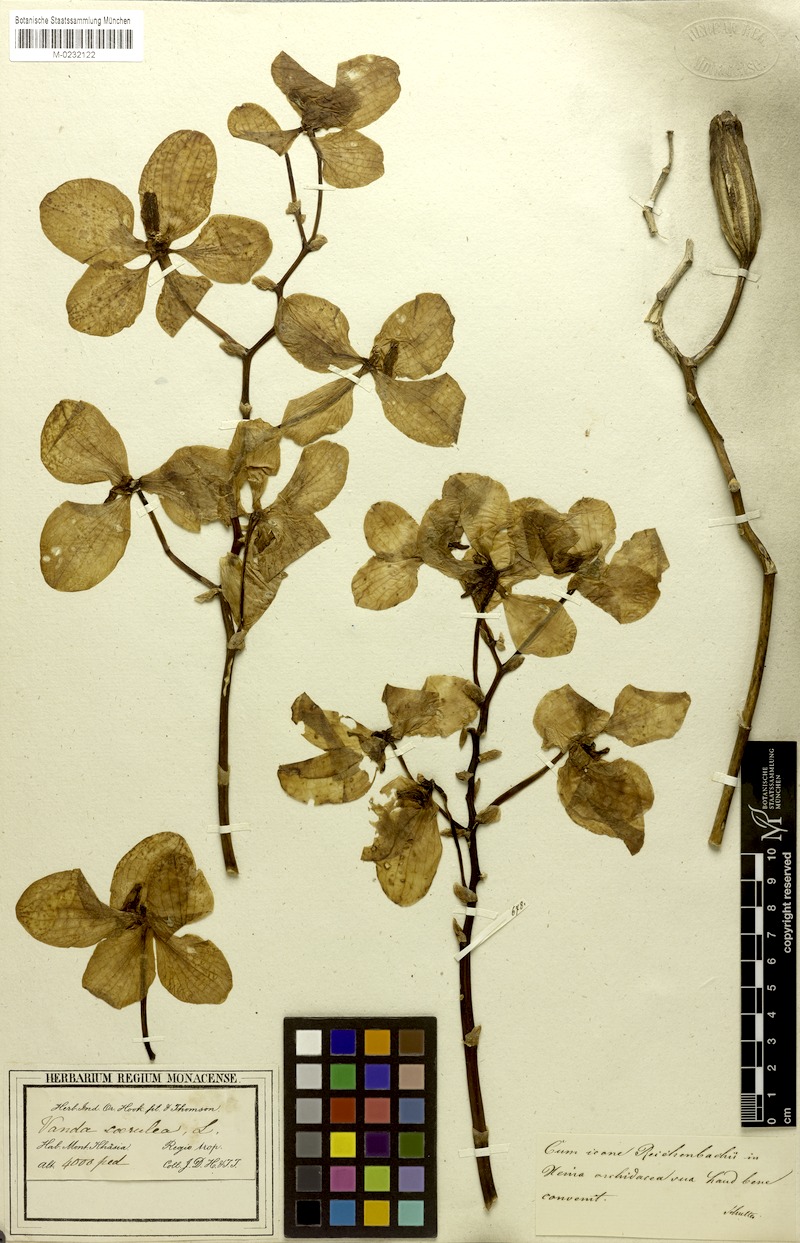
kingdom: Plantae
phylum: Tracheophyta
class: Liliopsida
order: Asparagales
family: Orchidaceae
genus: Vanda
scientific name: Vanda coerulea
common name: Blue orchid
